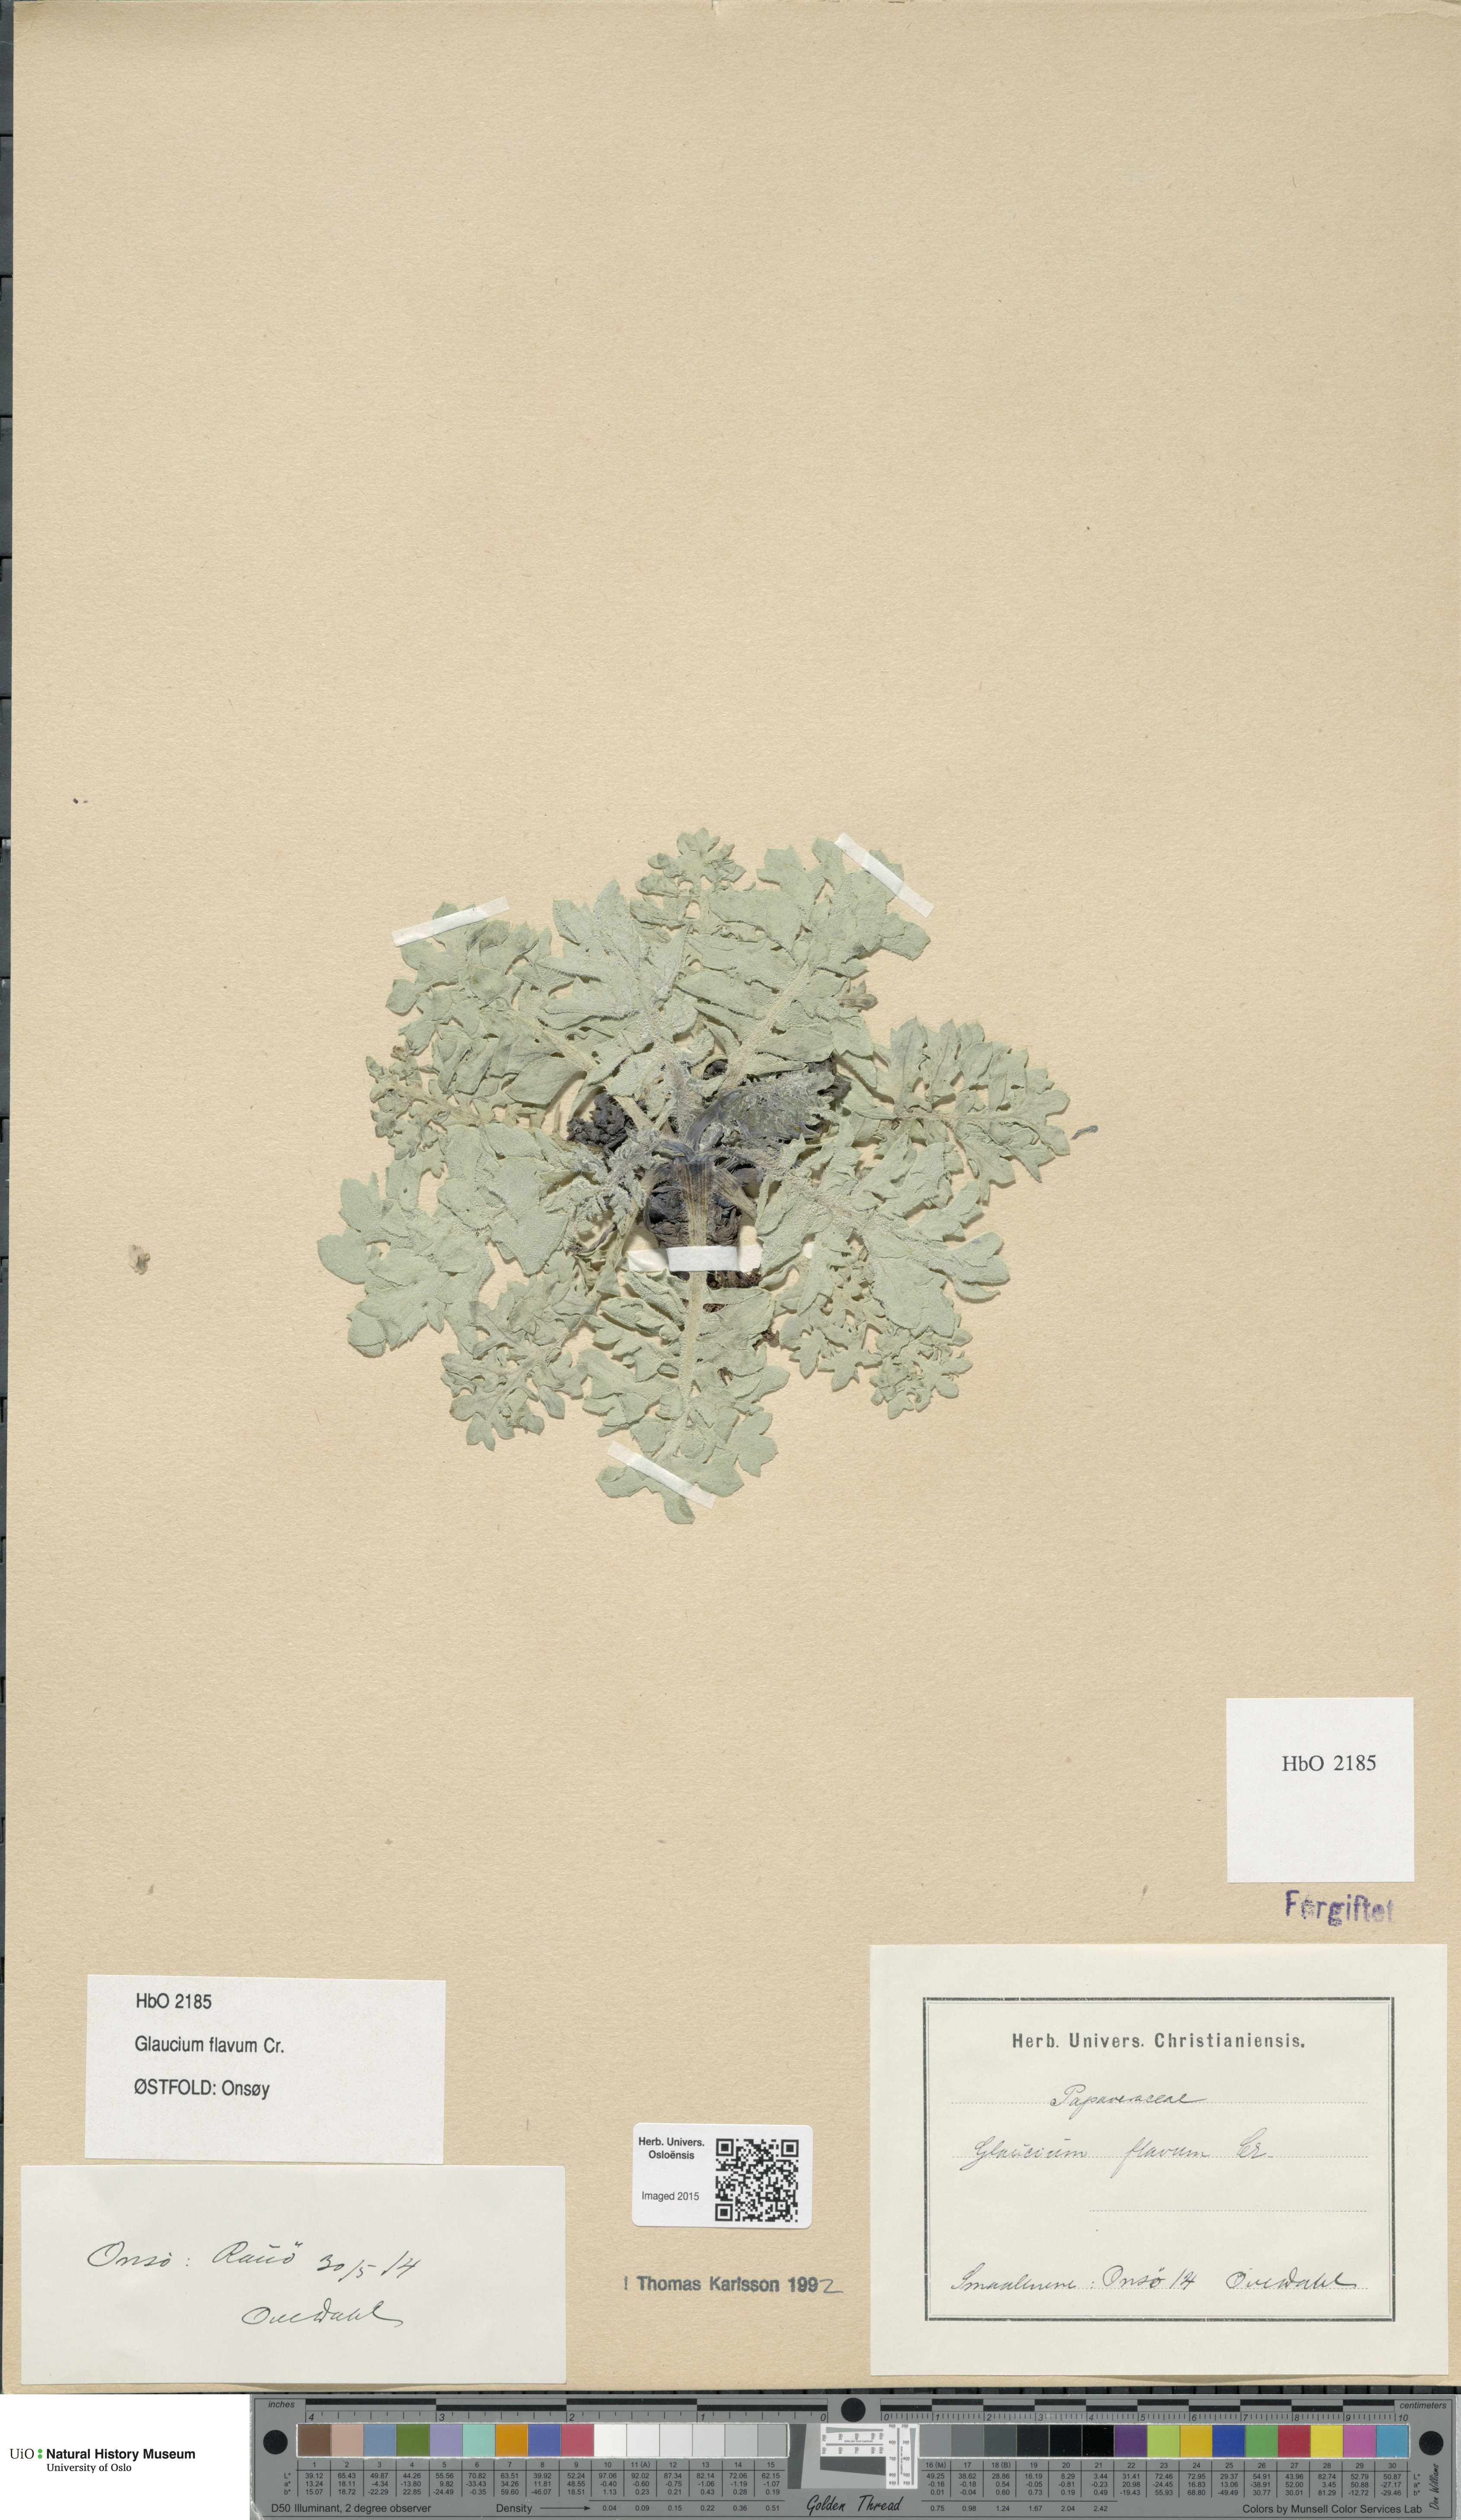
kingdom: Plantae
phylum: Tracheophyta
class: Magnoliopsida
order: Ranunculales
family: Papaveraceae
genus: Glaucium
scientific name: Glaucium flavum
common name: Yellow horned-poppy
